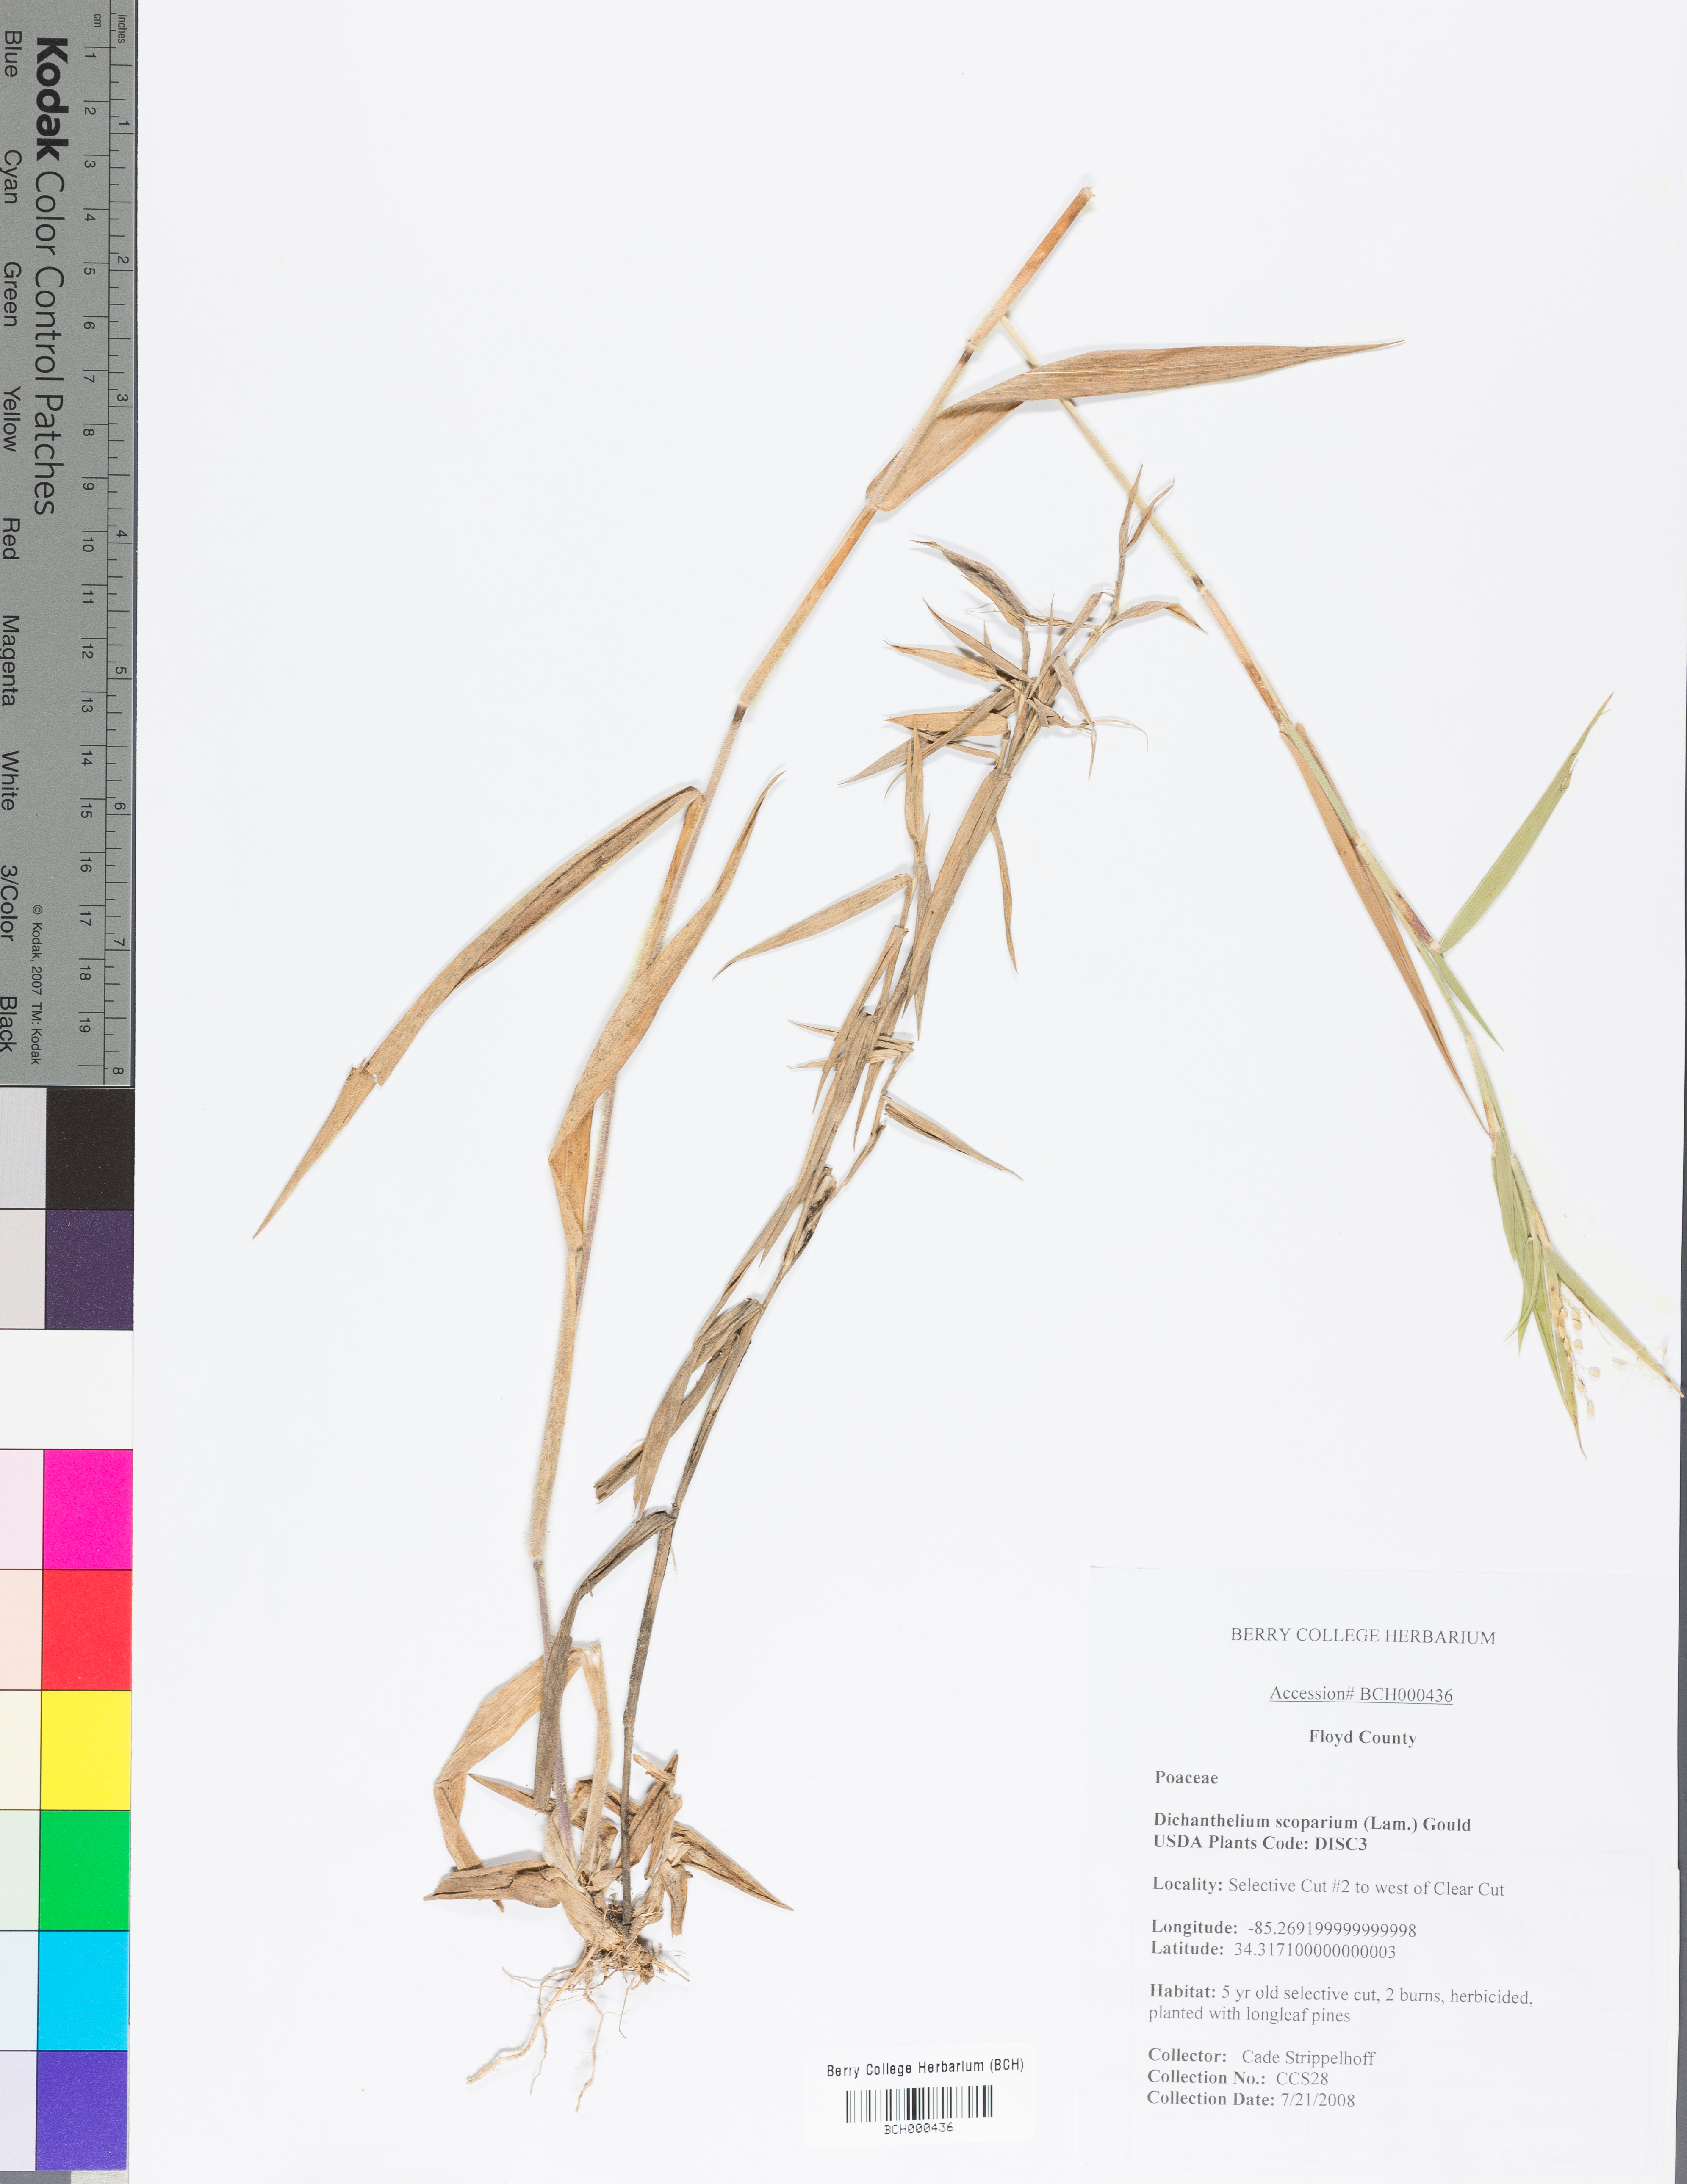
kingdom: Plantae
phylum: Tracheophyta
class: Liliopsida
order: Poales
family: Poaceae
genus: Dichanthelium
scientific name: Dichanthelium scoparium
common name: Velvety panic grass
